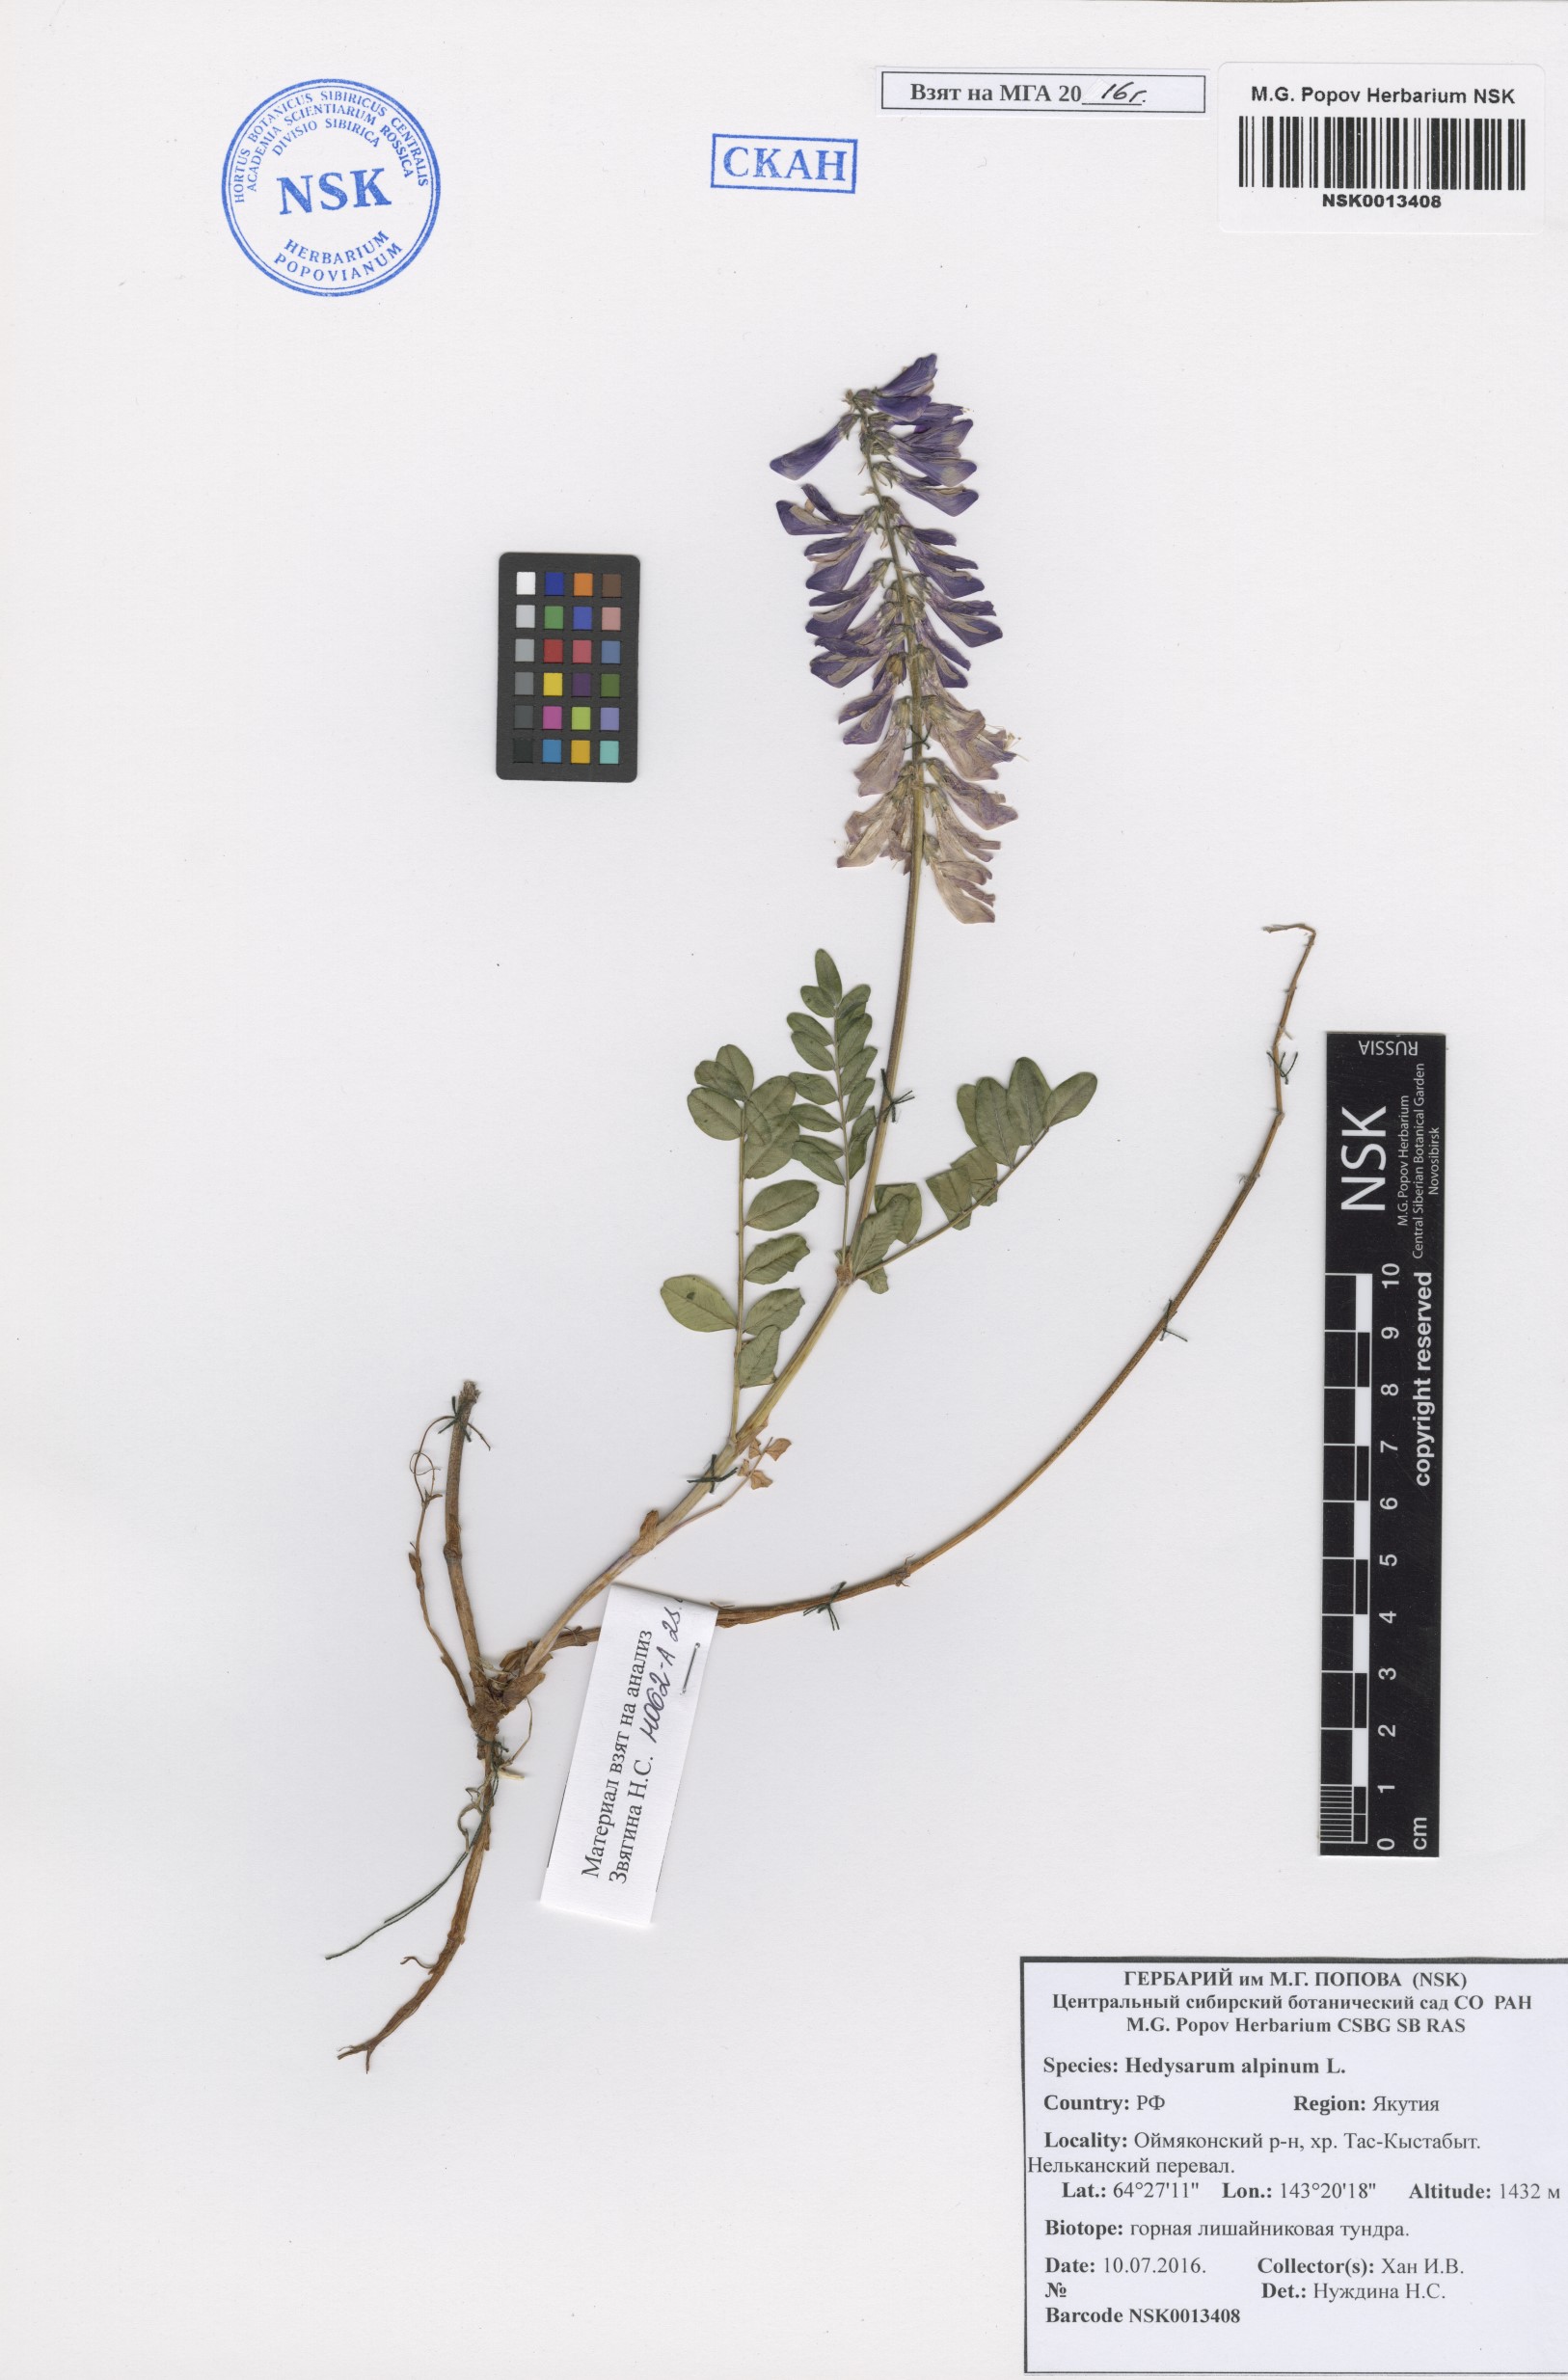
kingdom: Plantae
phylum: Tracheophyta
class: Magnoliopsida
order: Fabales
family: Fabaceae
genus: Hedysarum
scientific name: Hedysarum alpinum
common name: Alpine sweet-vetch
